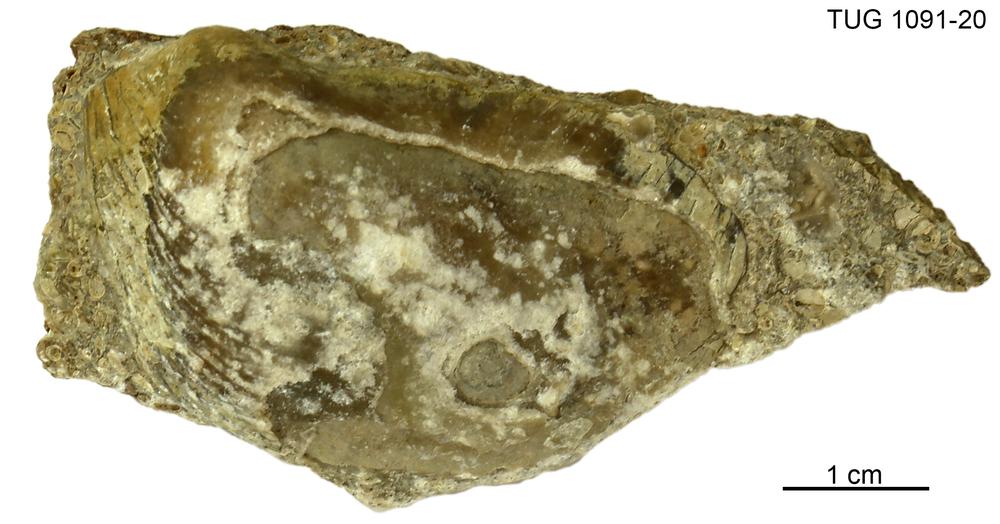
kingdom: Animalia
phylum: Mollusca
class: Bivalvia
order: Ostreida
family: Pterineidae
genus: Pteronitella
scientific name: Pteronitella retroflexa
